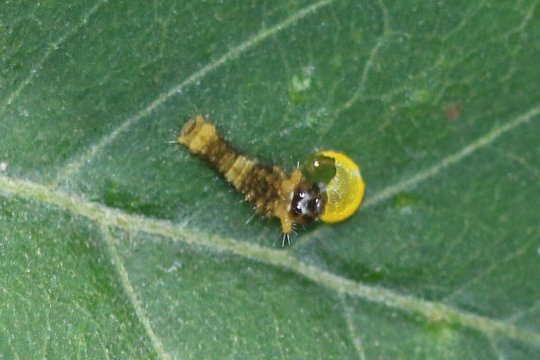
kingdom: Animalia
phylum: Arthropoda
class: Insecta
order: Lepidoptera
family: Papilionidae
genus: Papilio
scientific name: Papilio cresphontes
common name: Eastern Giant Swallowtail
